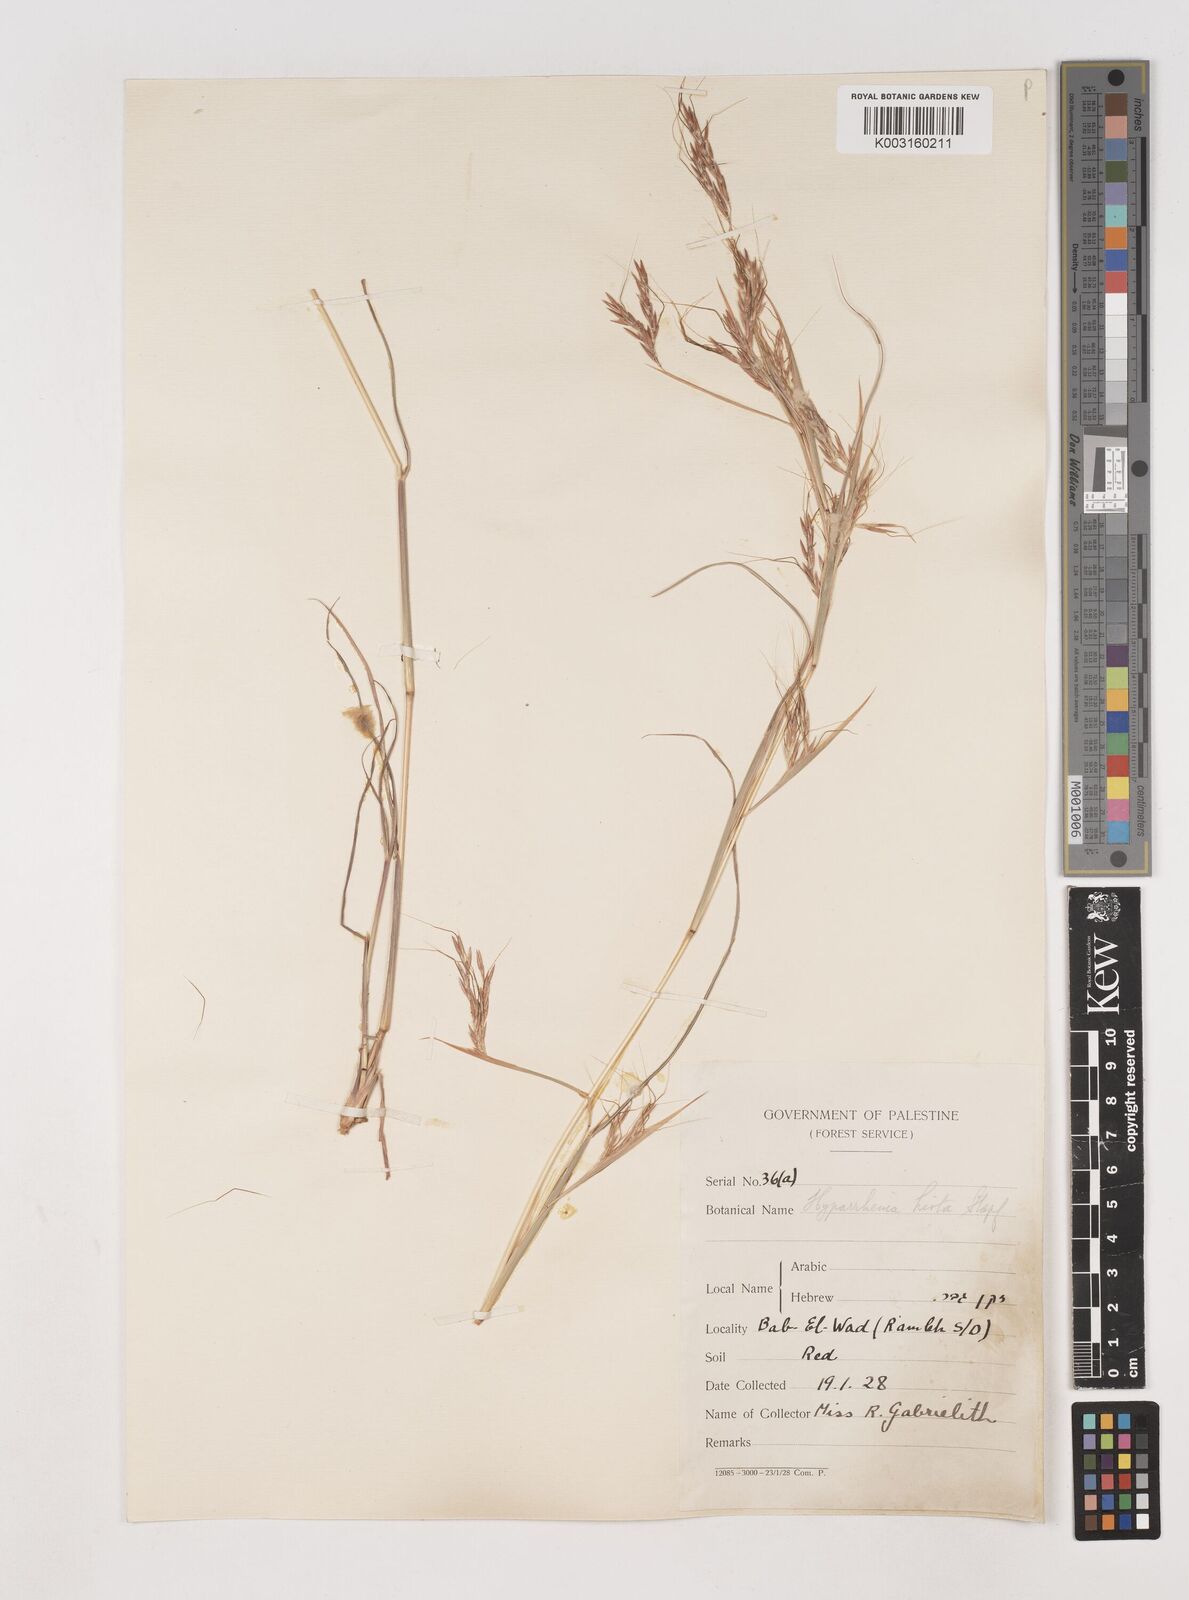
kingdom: Plantae
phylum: Tracheophyta
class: Liliopsida
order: Poales
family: Poaceae
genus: Hyparrhenia
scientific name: Hyparrhenia hirta
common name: Thatching grass
